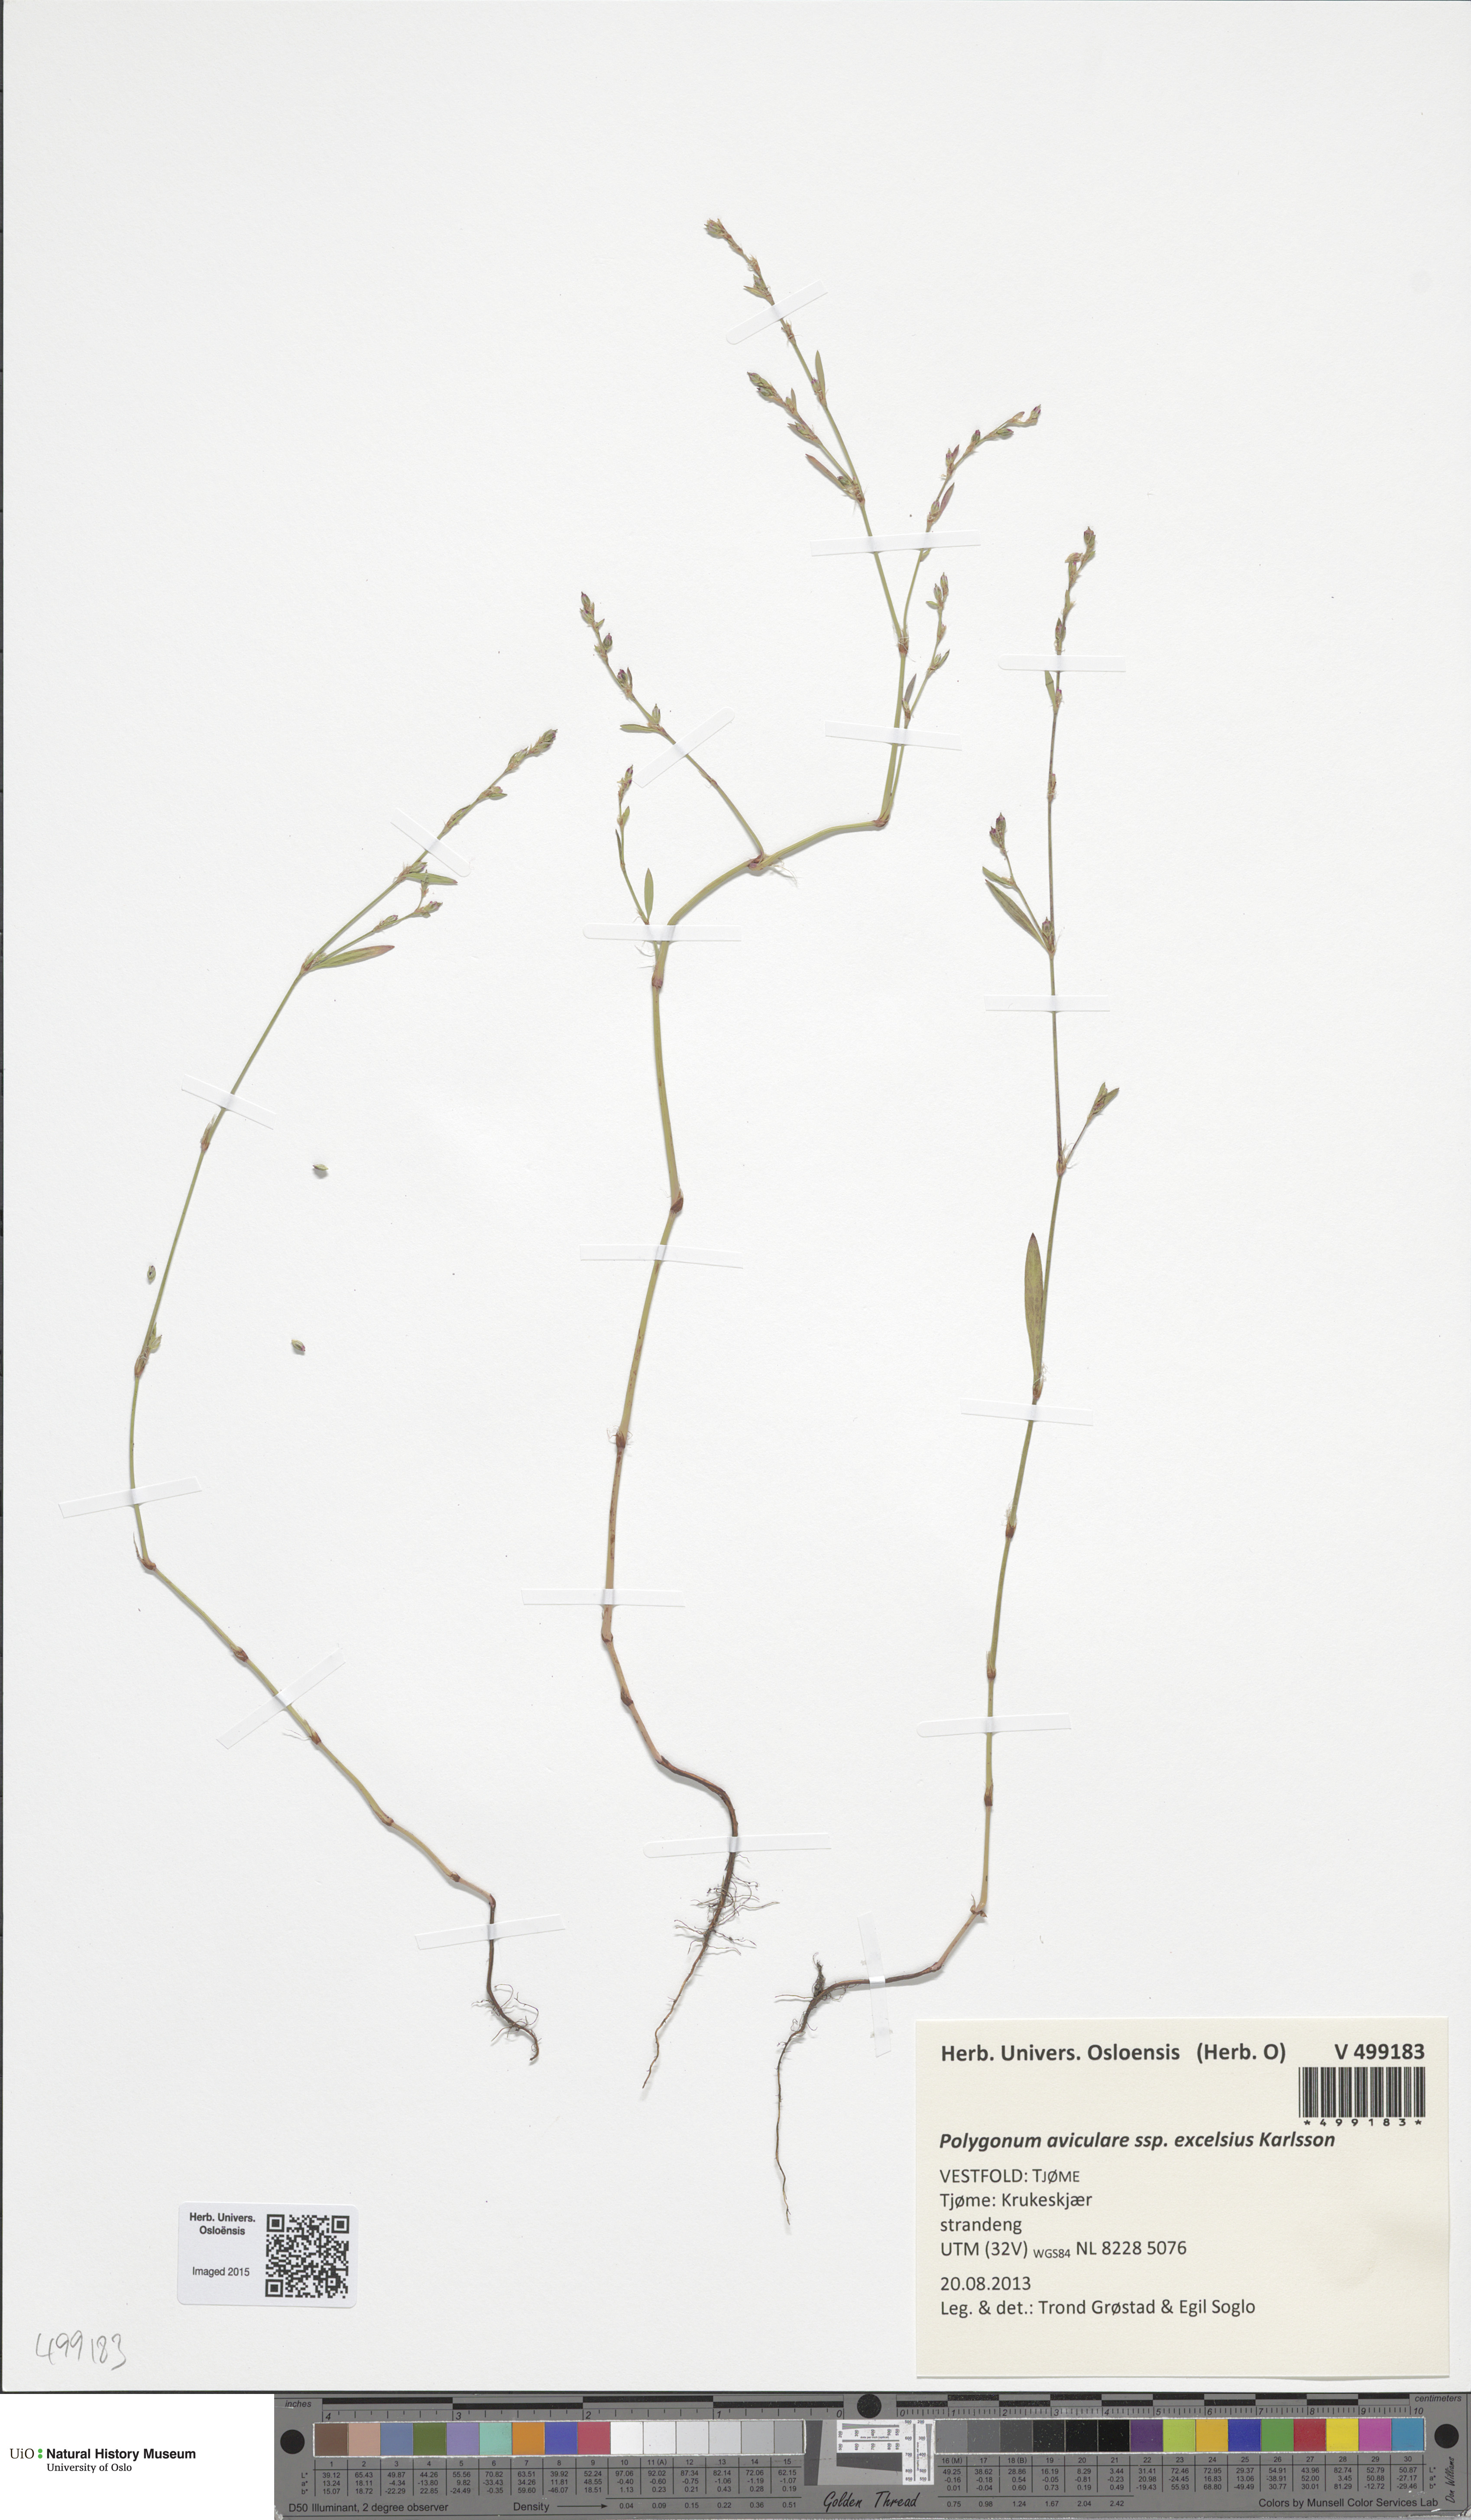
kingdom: Plantae
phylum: Tracheophyta
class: Magnoliopsida
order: Caryophyllales
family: Polygonaceae
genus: Polygonum
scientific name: Polygonum excelsius
